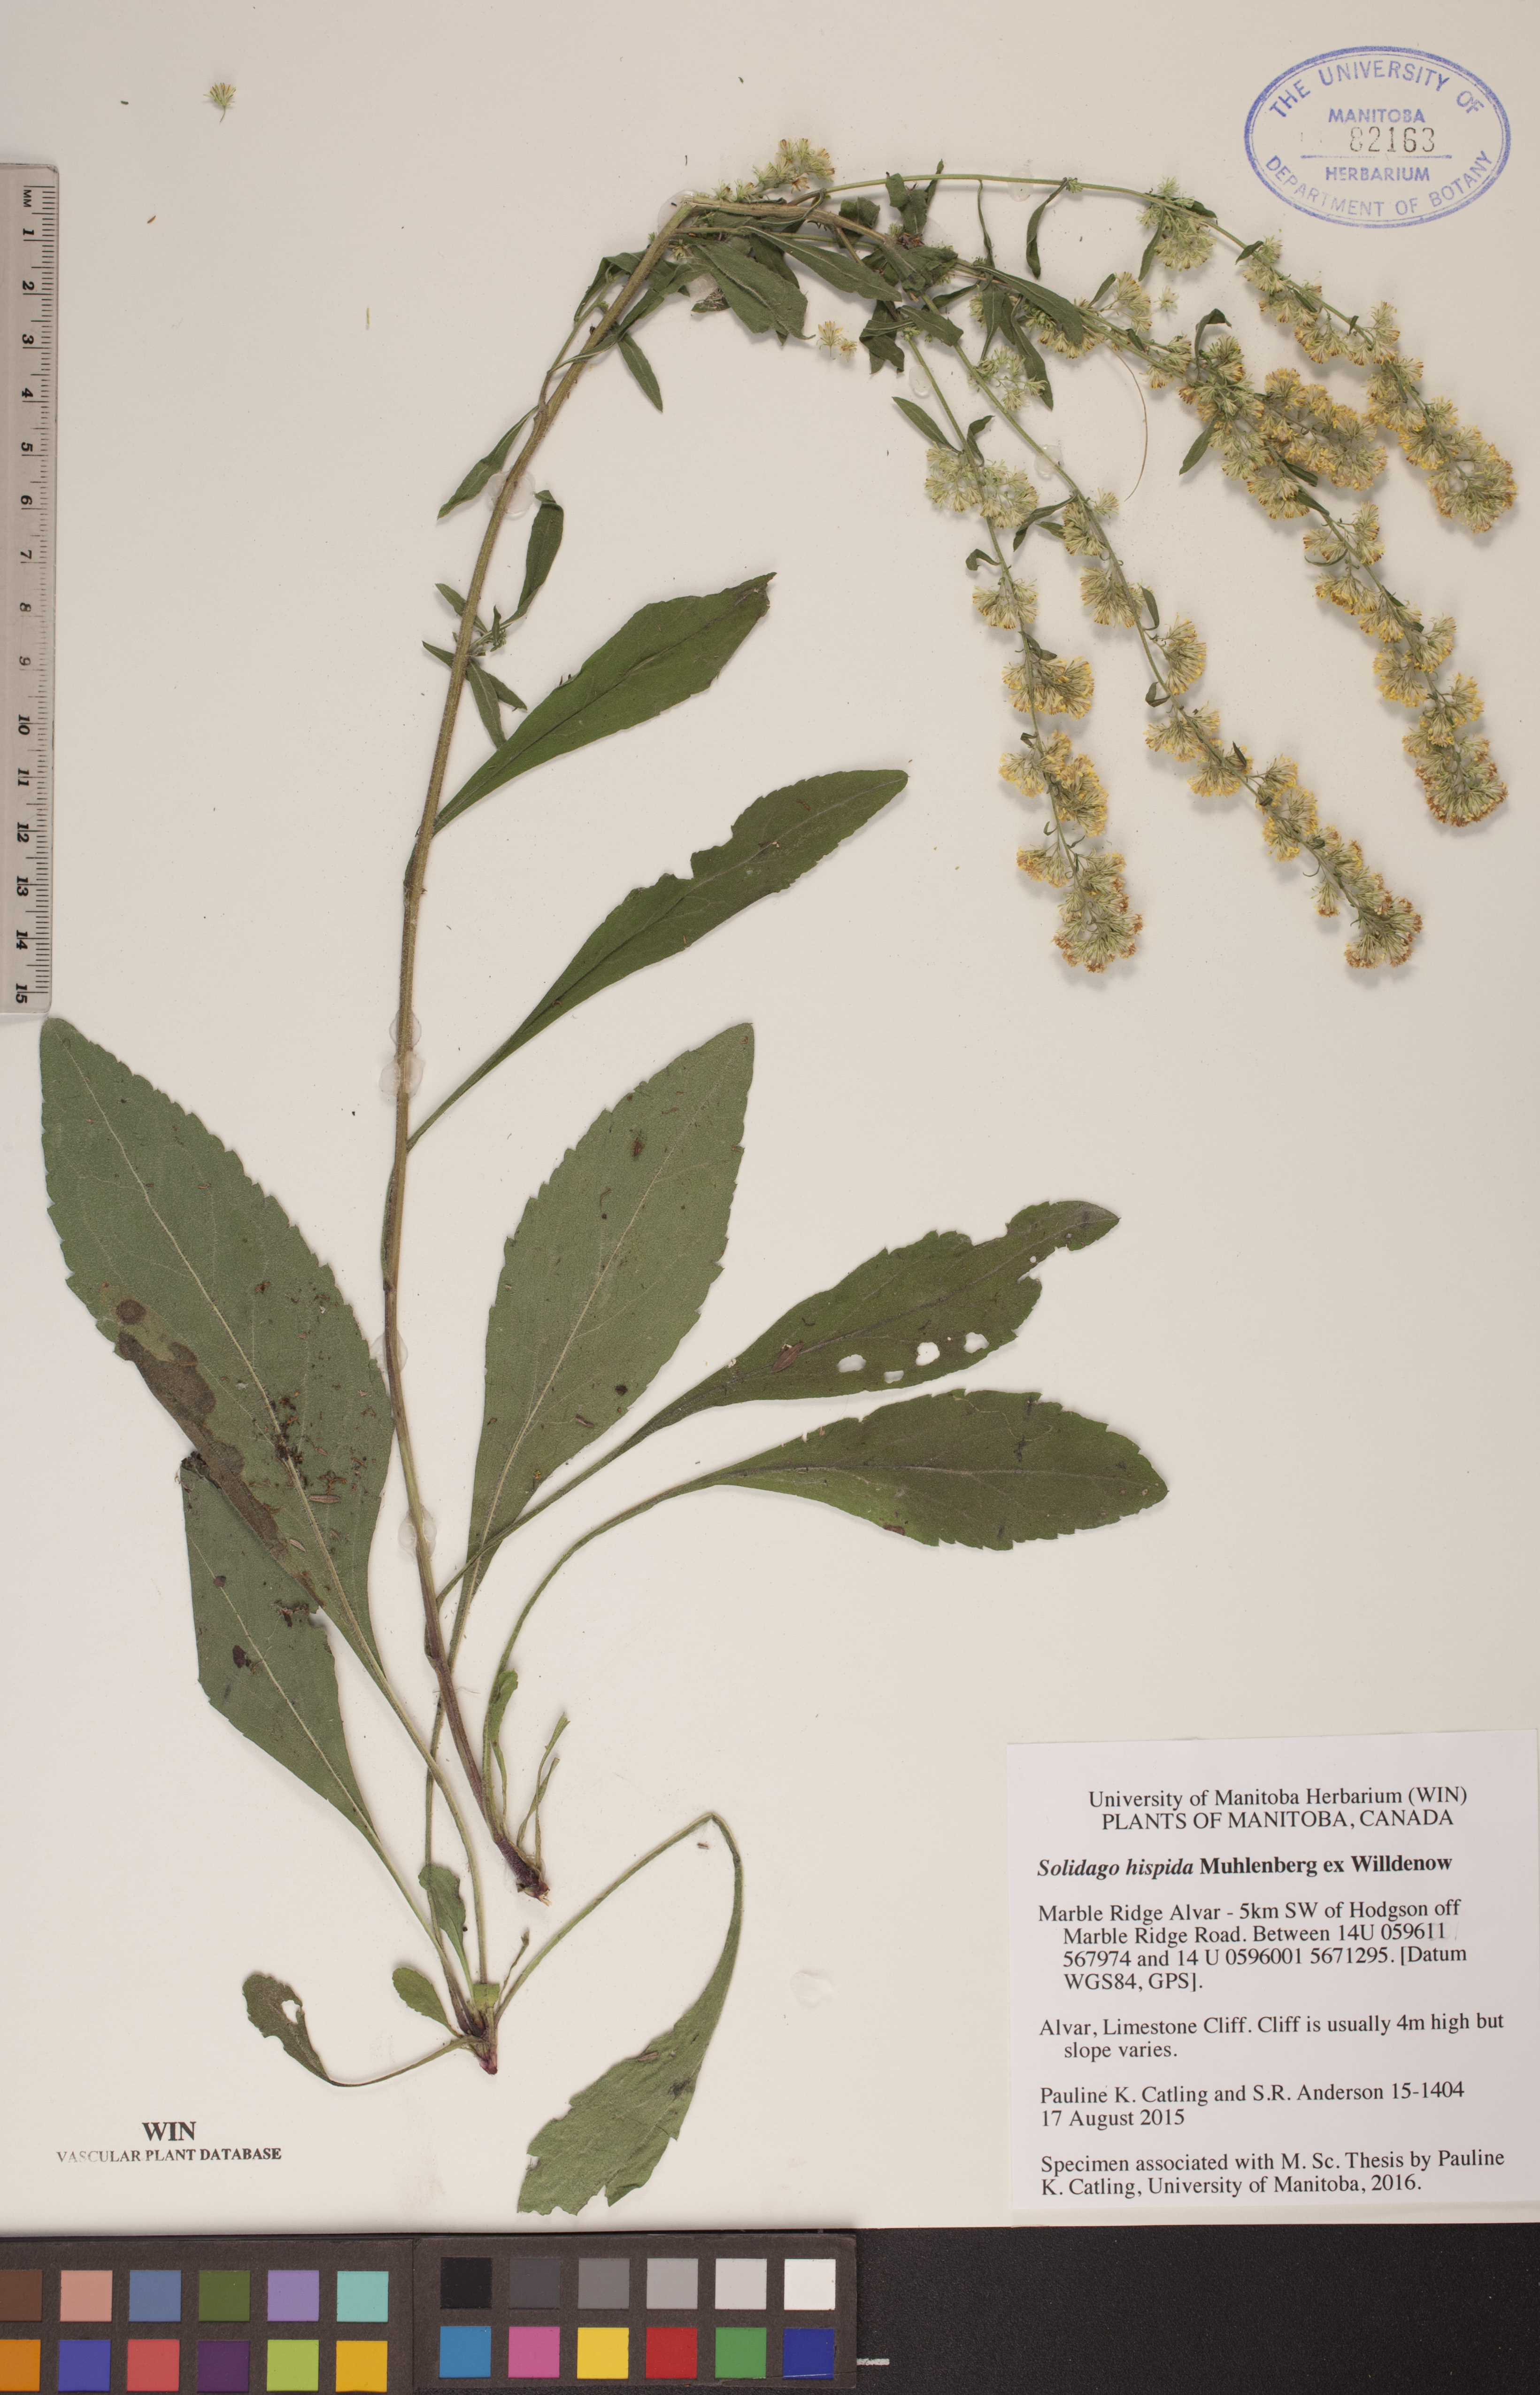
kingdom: Plantae
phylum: Tracheophyta
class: Magnoliopsida
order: Asterales
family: Asteraceae
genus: Solidago
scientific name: Solidago hispida
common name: Hairy goldenrod
